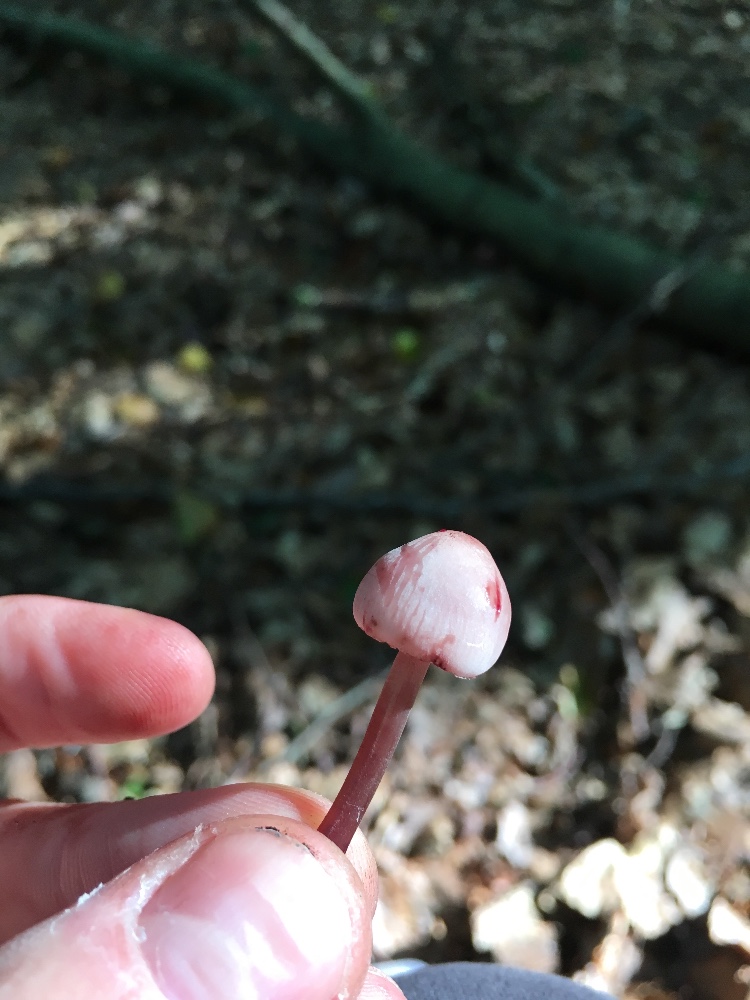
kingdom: Fungi
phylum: Basidiomycota
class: Agaricomycetes
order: Agaricales
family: Mycenaceae
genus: Mycena
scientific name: Mycena haematopus
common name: blødende huesvamp
